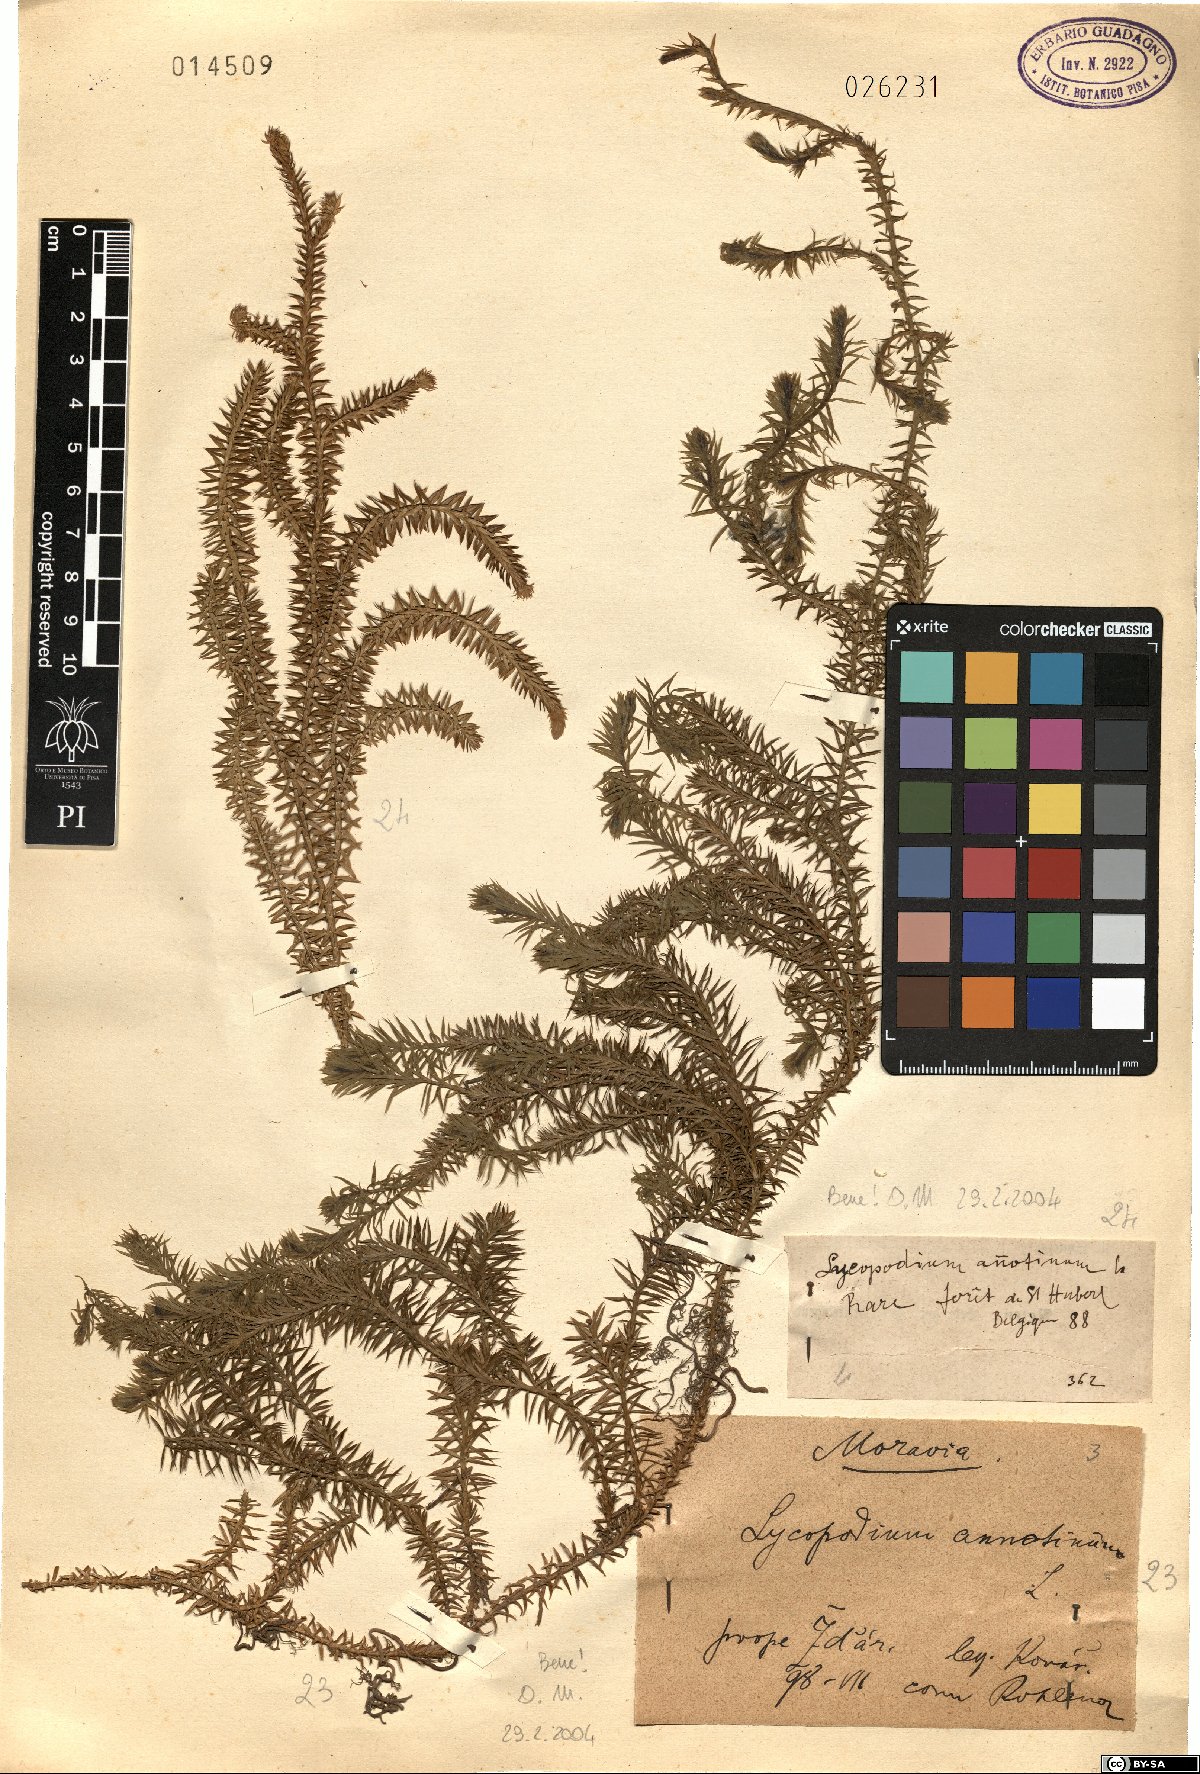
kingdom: Plantae
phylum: Tracheophyta
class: Lycopodiopsida
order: Lycopodiales
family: Lycopodiaceae
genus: Spinulum
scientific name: Spinulum annotinum
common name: Interrupted club-moss
